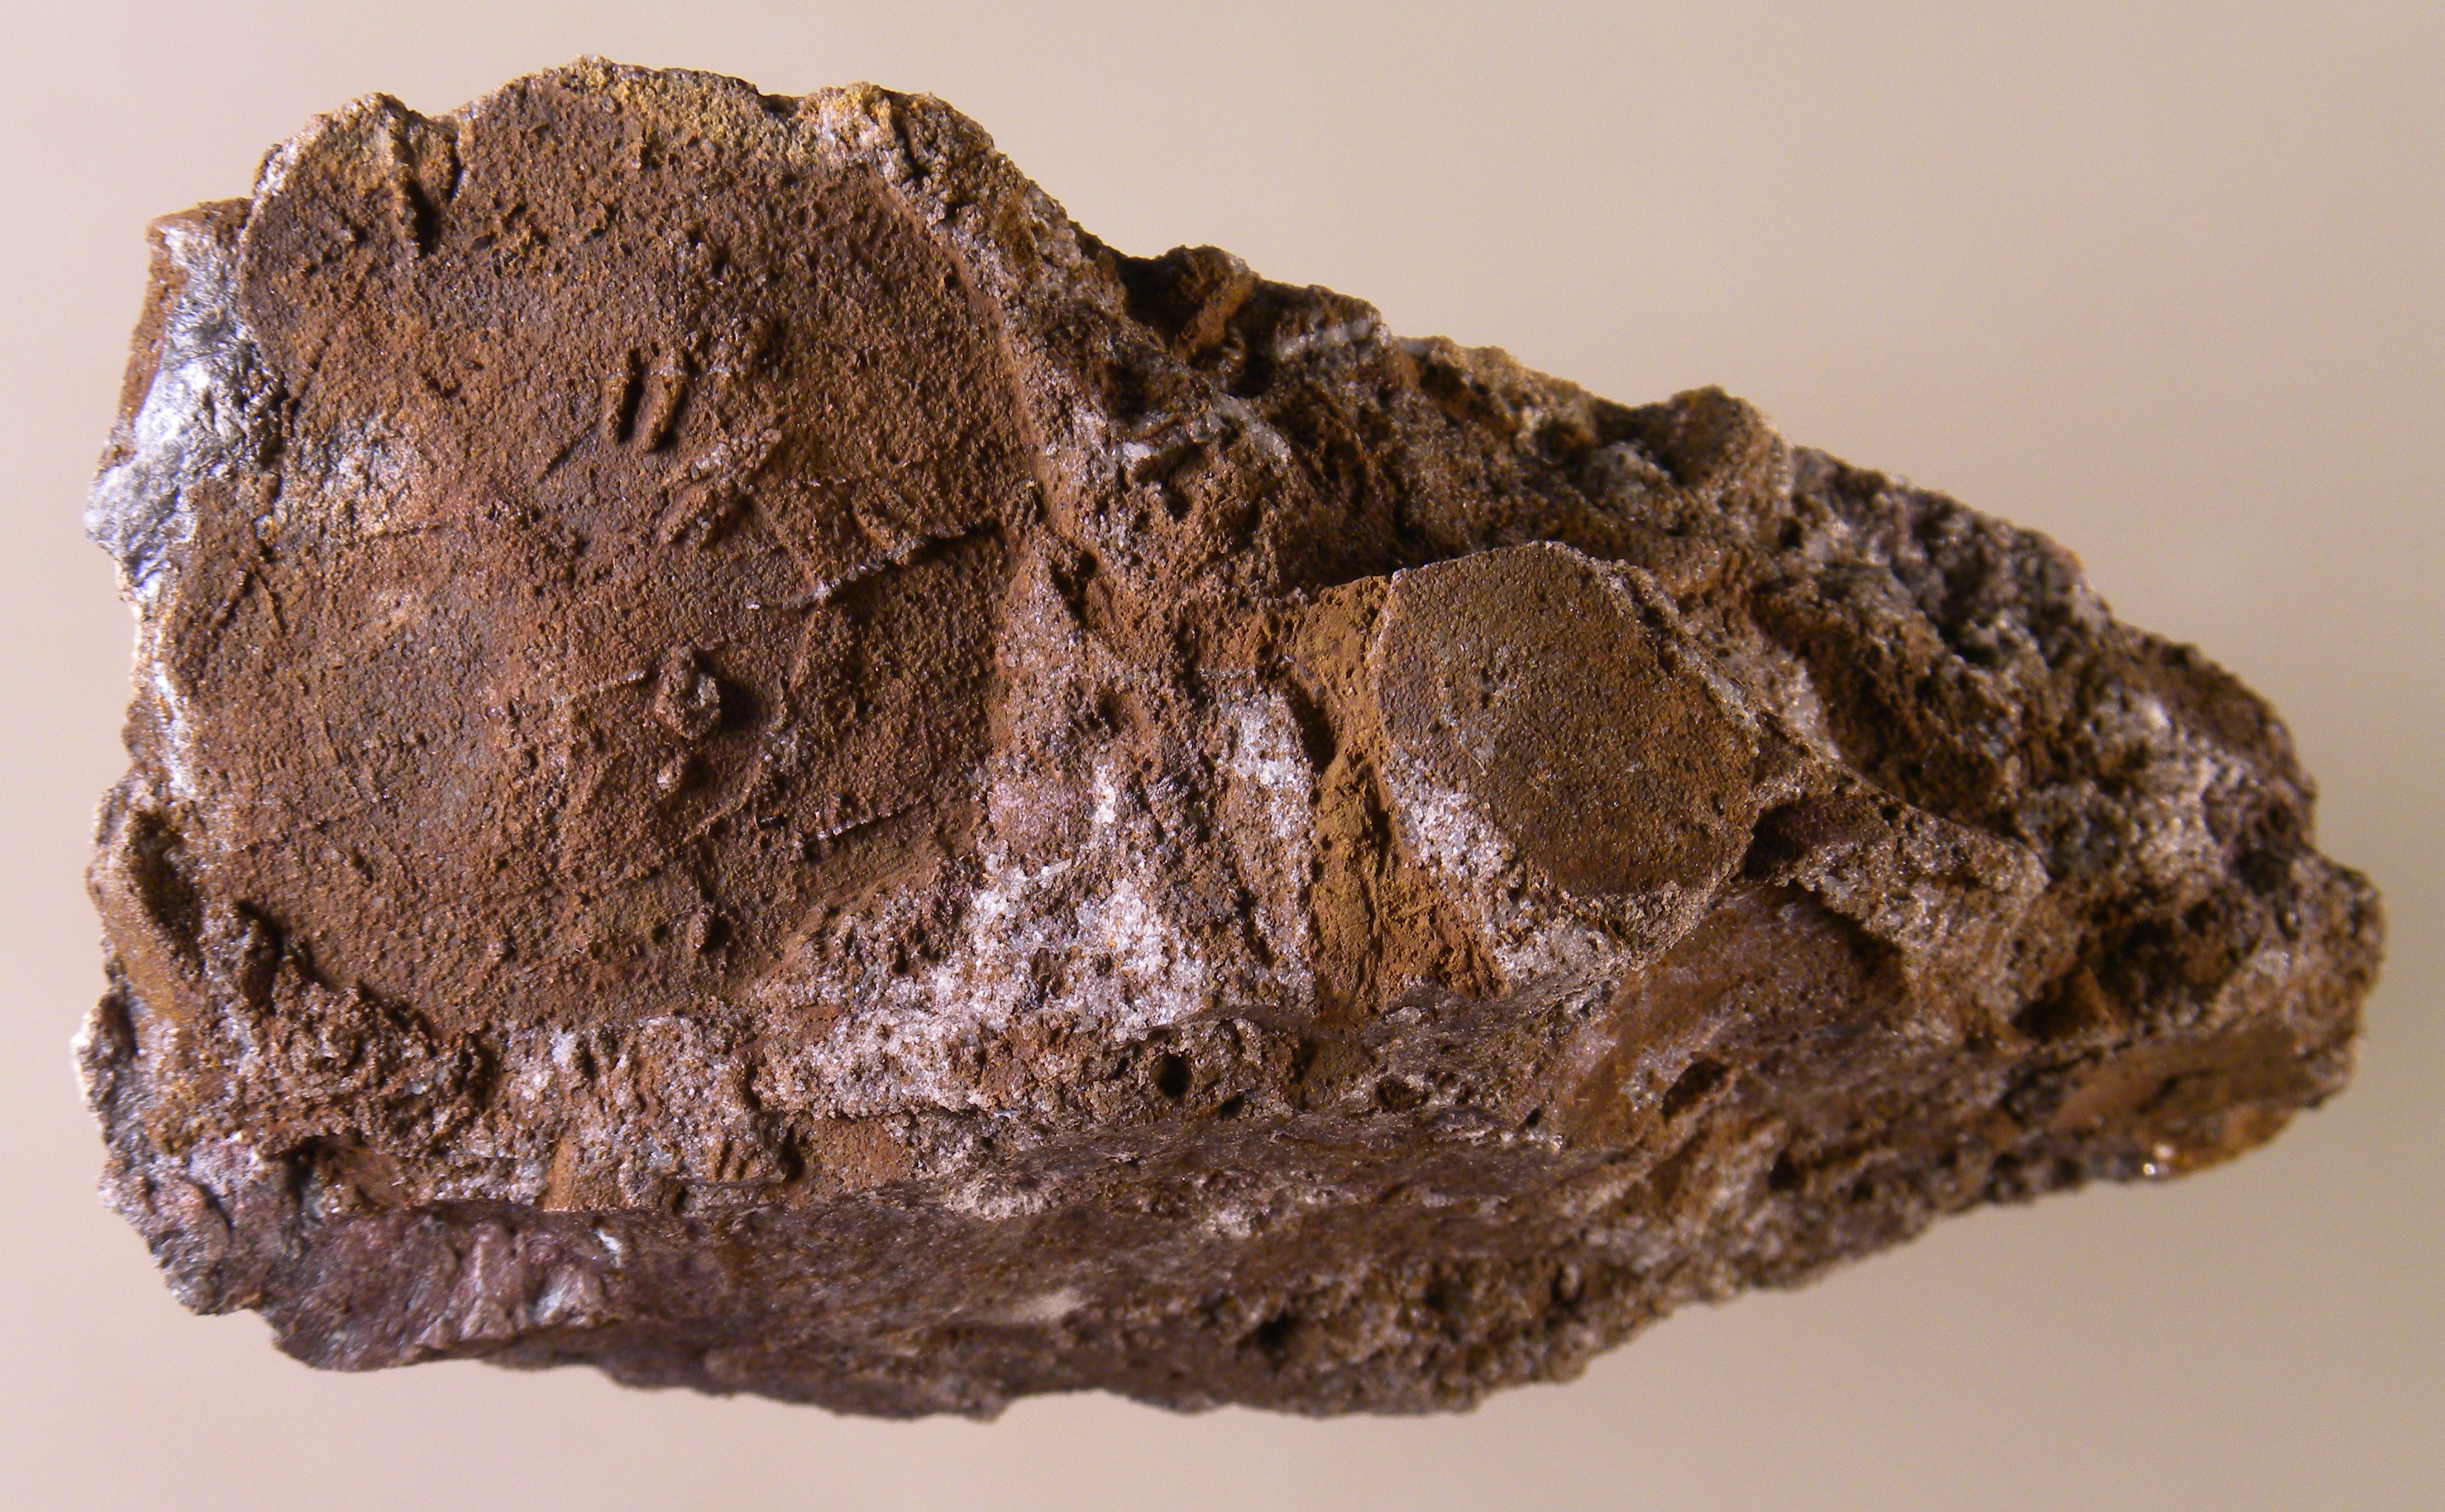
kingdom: Animalia
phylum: Cnidaria
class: Anthozoa
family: Micheliniidae
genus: Pleurodictyum
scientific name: Pleurodictyum
